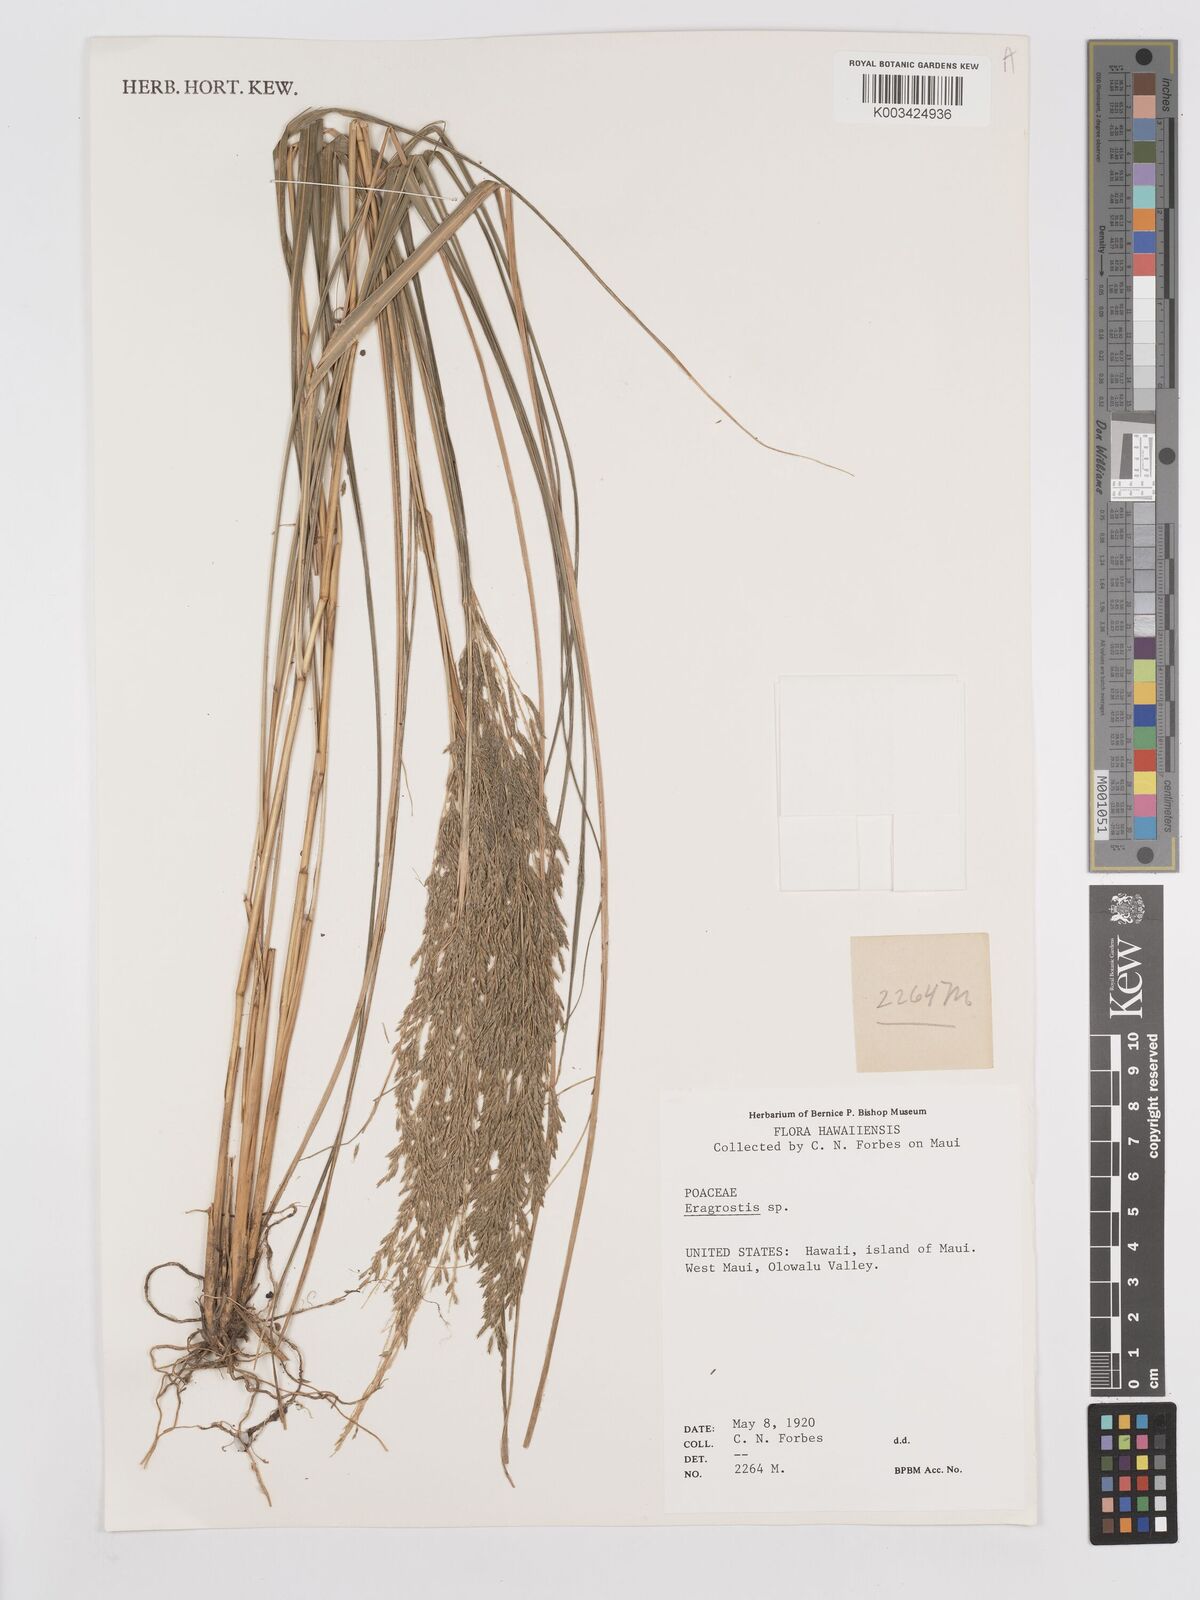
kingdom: Plantae
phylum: Tracheophyta
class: Liliopsida
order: Poales
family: Poaceae
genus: Eragrostis
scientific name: Eragrostis grandis
